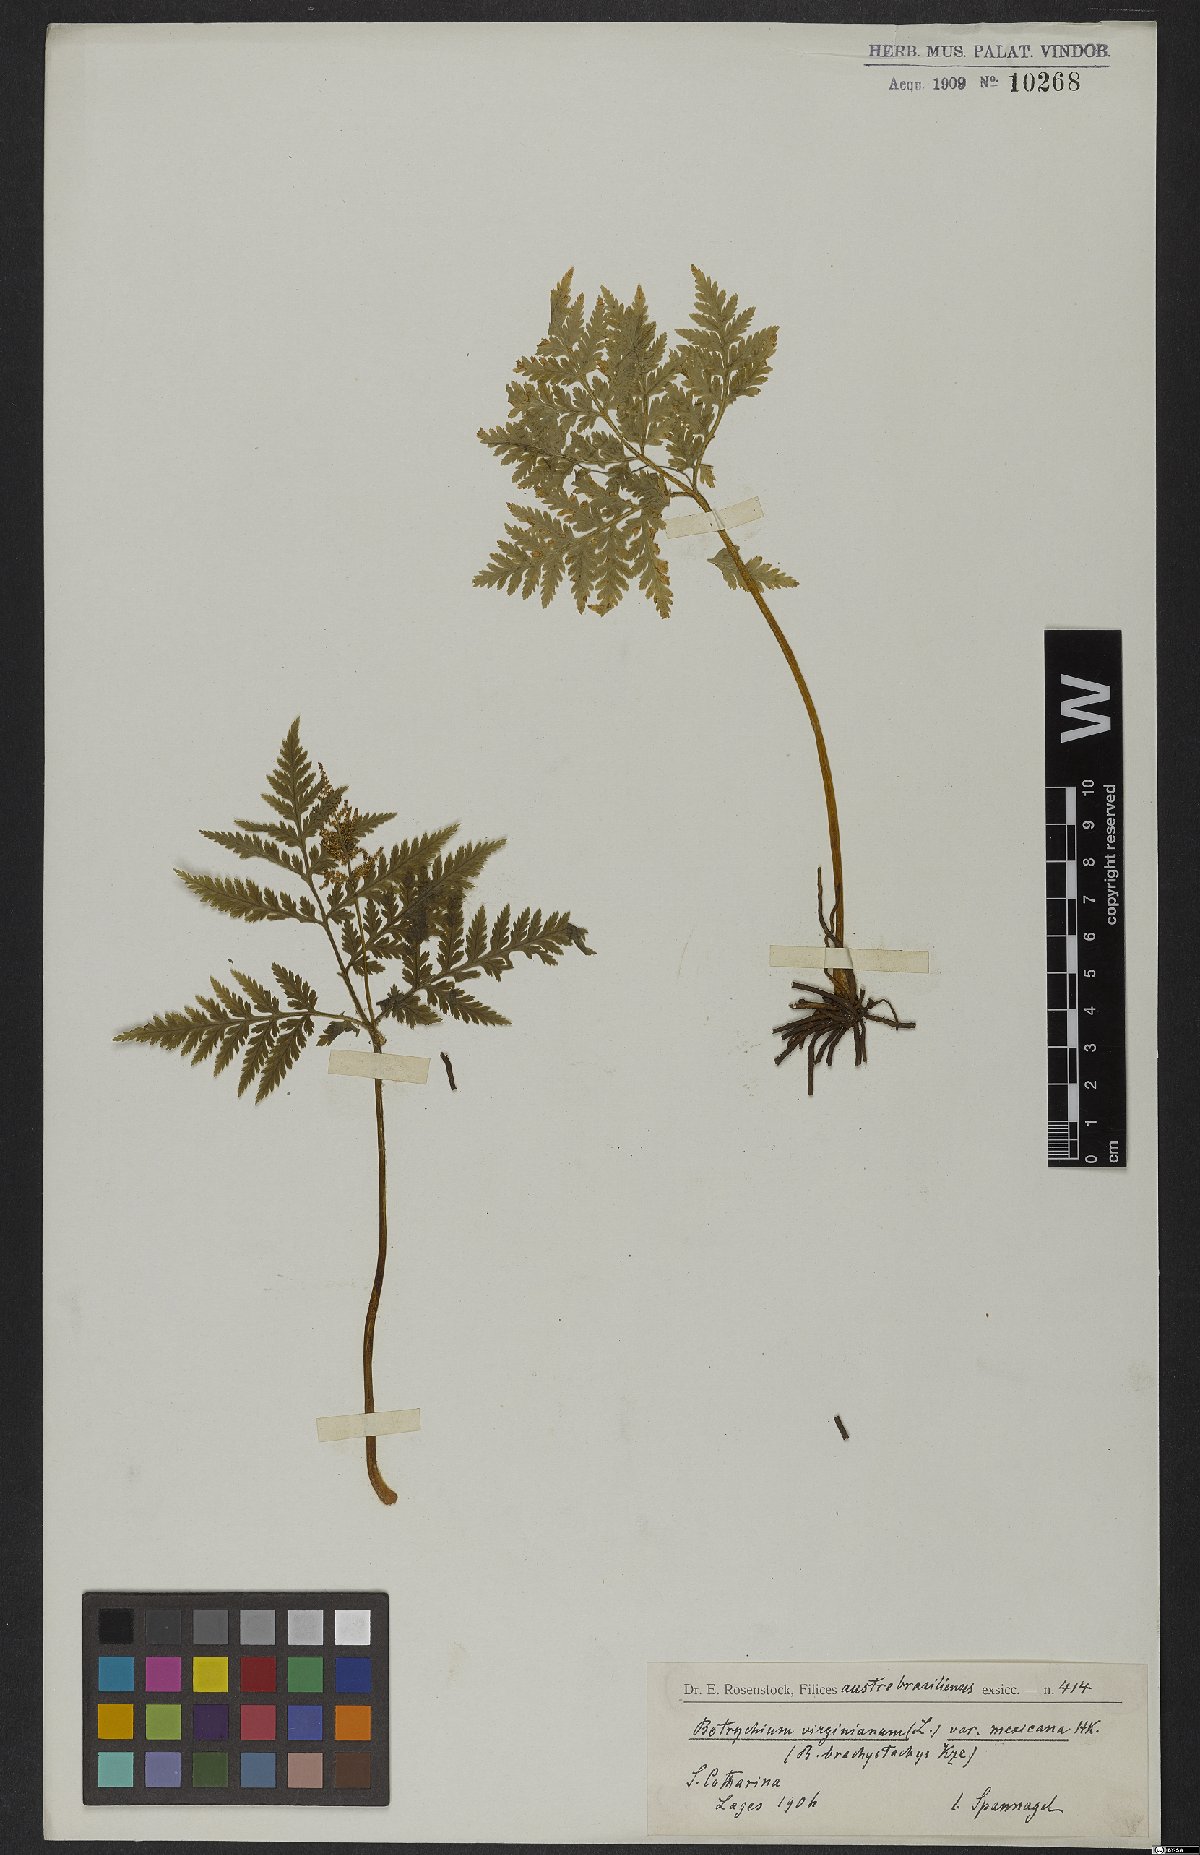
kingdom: Plantae
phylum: Tracheophyta
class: Polypodiopsida
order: Ophioglossales
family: Ophioglossaceae
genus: Botrypus
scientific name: Botrypus virginianus
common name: Common grapefern
